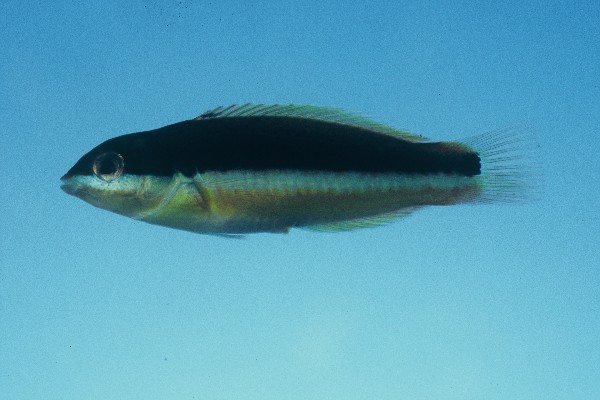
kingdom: Animalia
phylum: Chordata
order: Perciformes
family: Labridae
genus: Thalassoma
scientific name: Thalassoma amblycephalum
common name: Bluehead wrasse
